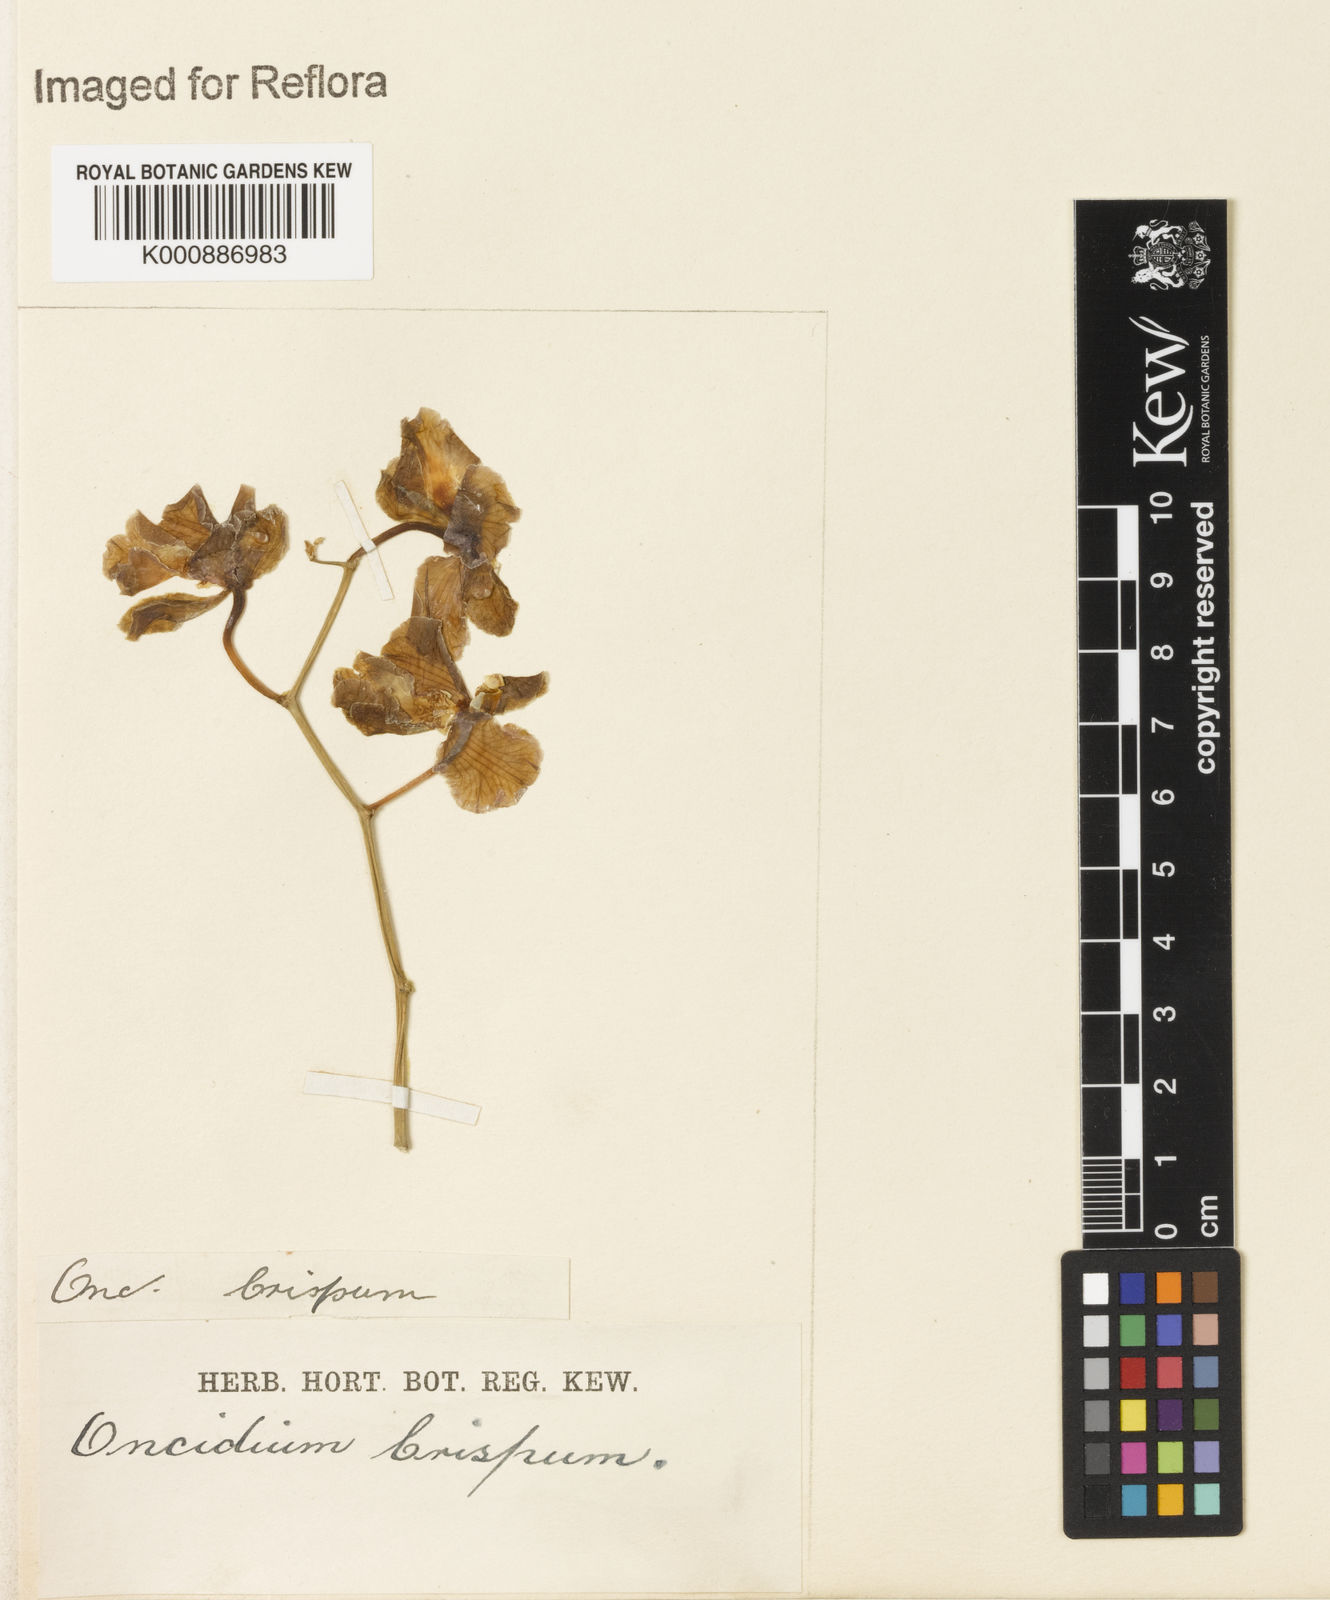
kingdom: Plantae
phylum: Tracheophyta
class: Liliopsida
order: Asparagales
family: Orchidaceae
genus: Gomesa
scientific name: Gomesa praetexta
